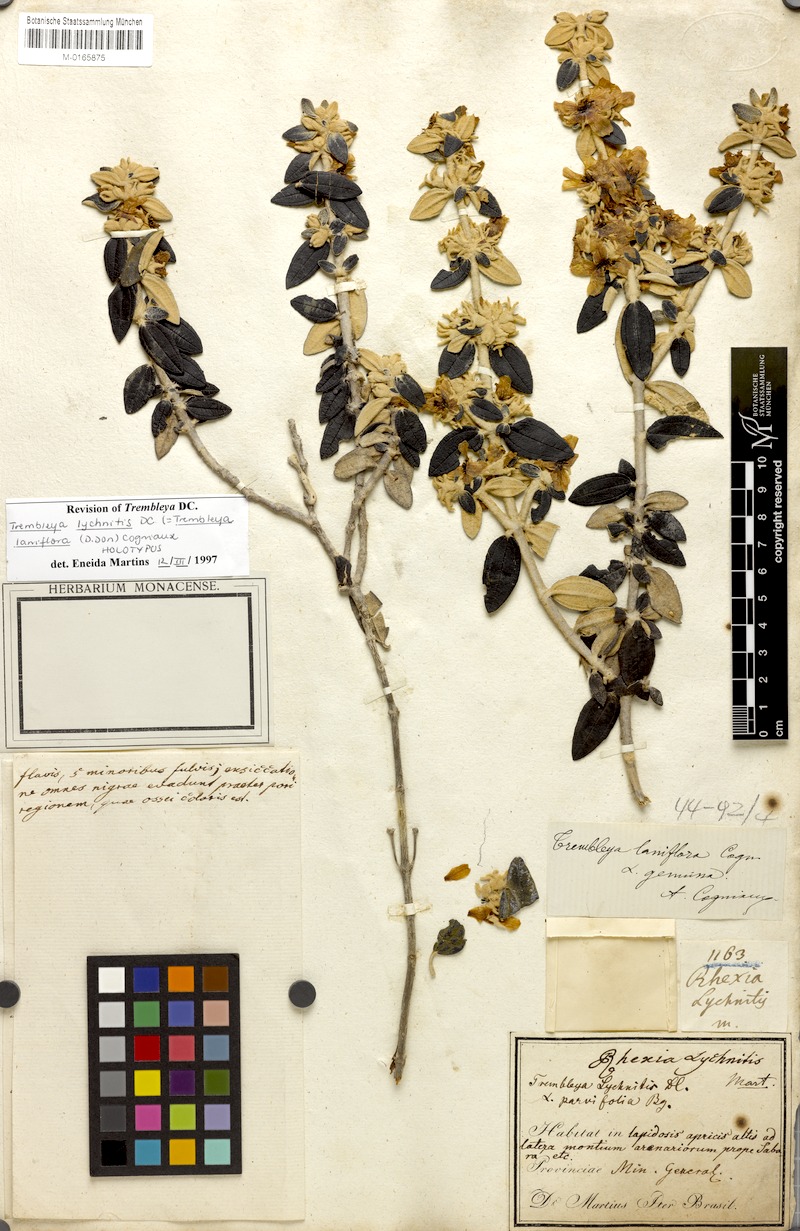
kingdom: Plantae
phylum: Tracheophyta
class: Magnoliopsida
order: Myrtales
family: Melastomataceae
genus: Microlicia
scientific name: Microlicia laniflora
